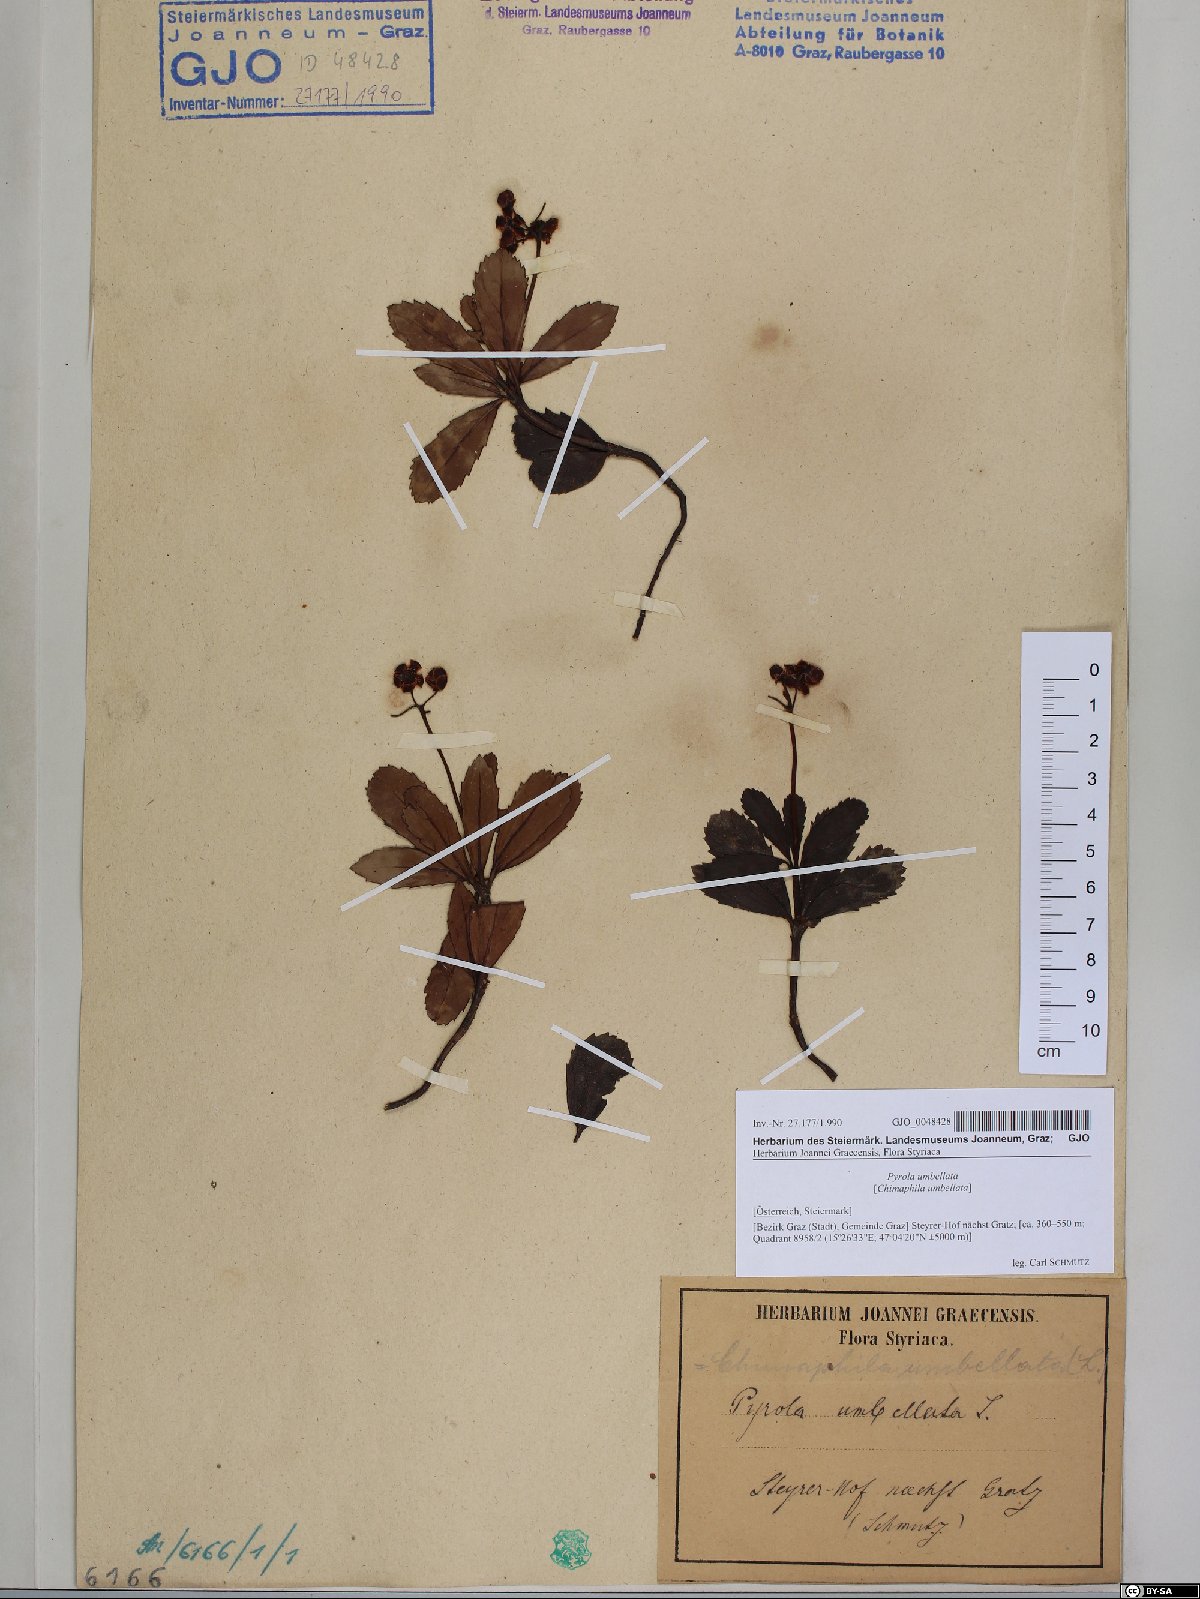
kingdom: Plantae
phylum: Tracheophyta
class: Magnoliopsida
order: Ericales
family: Ericaceae
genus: Chimaphila
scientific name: Chimaphila umbellata
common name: Pipsissewa
